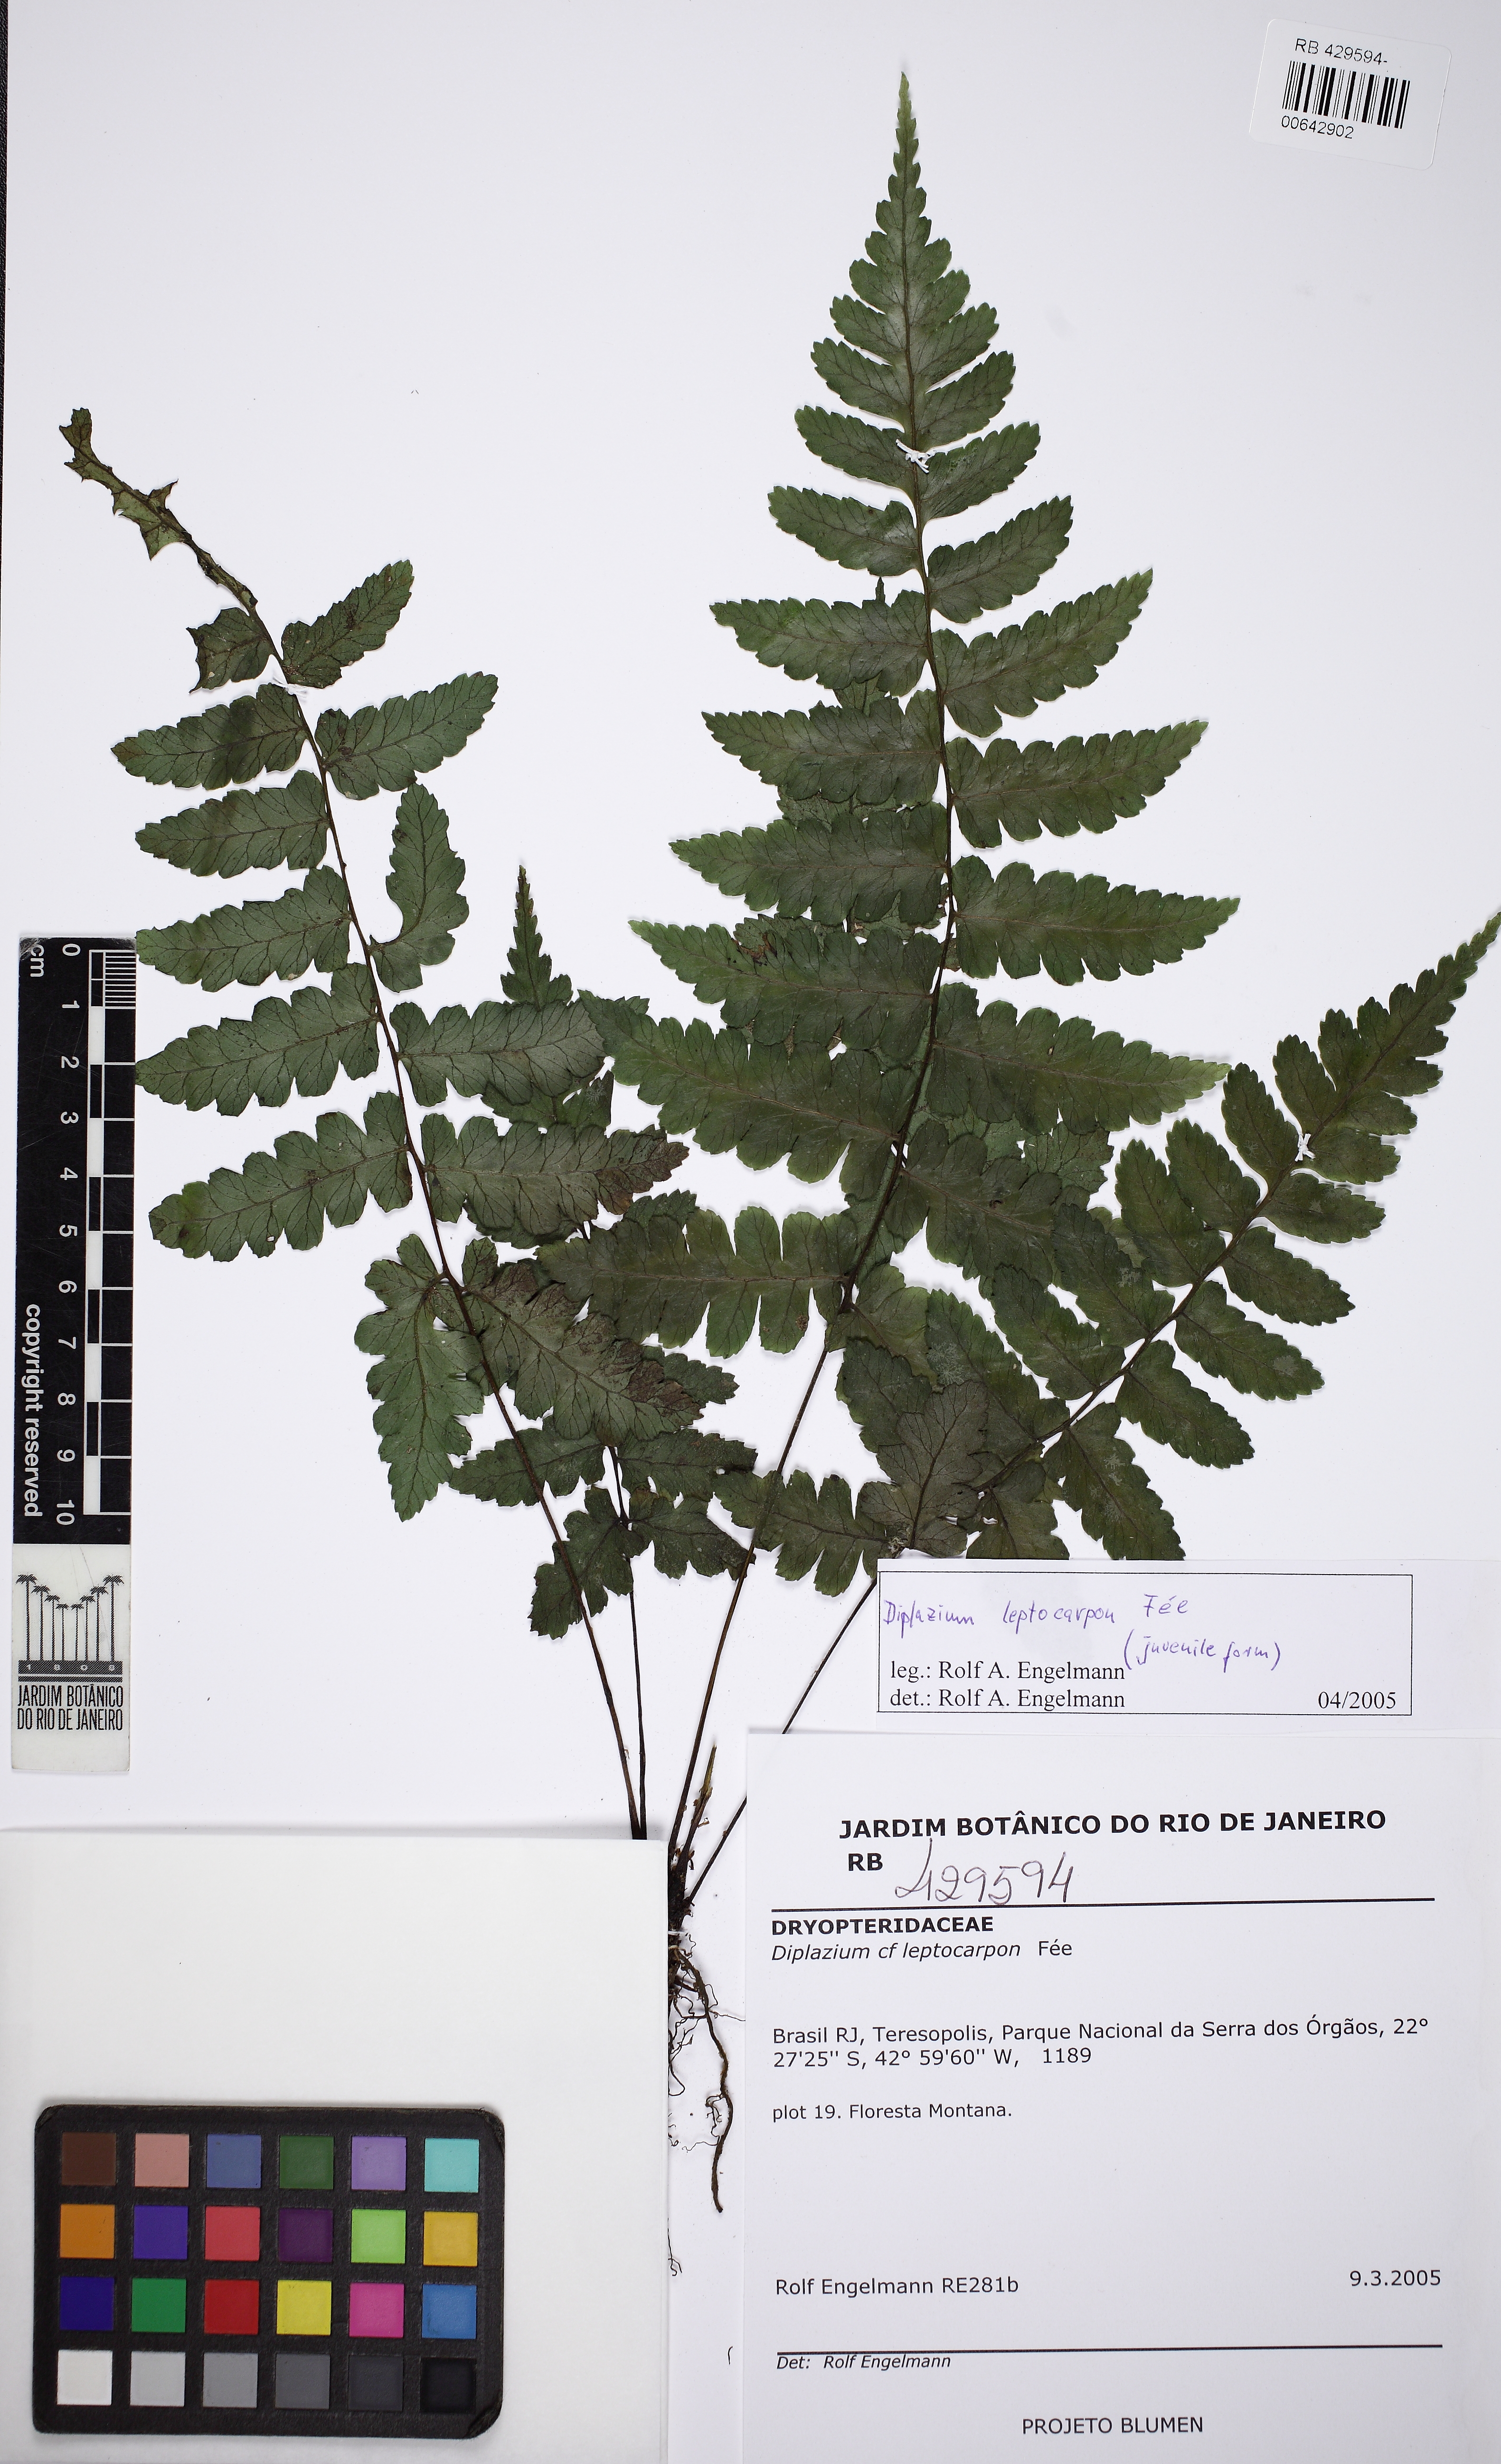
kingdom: Plantae
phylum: Tracheophyta
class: Polypodiopsida
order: Polypodiales
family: Athyriaceae
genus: Diplazium
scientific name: Diplazium leptocarpon
